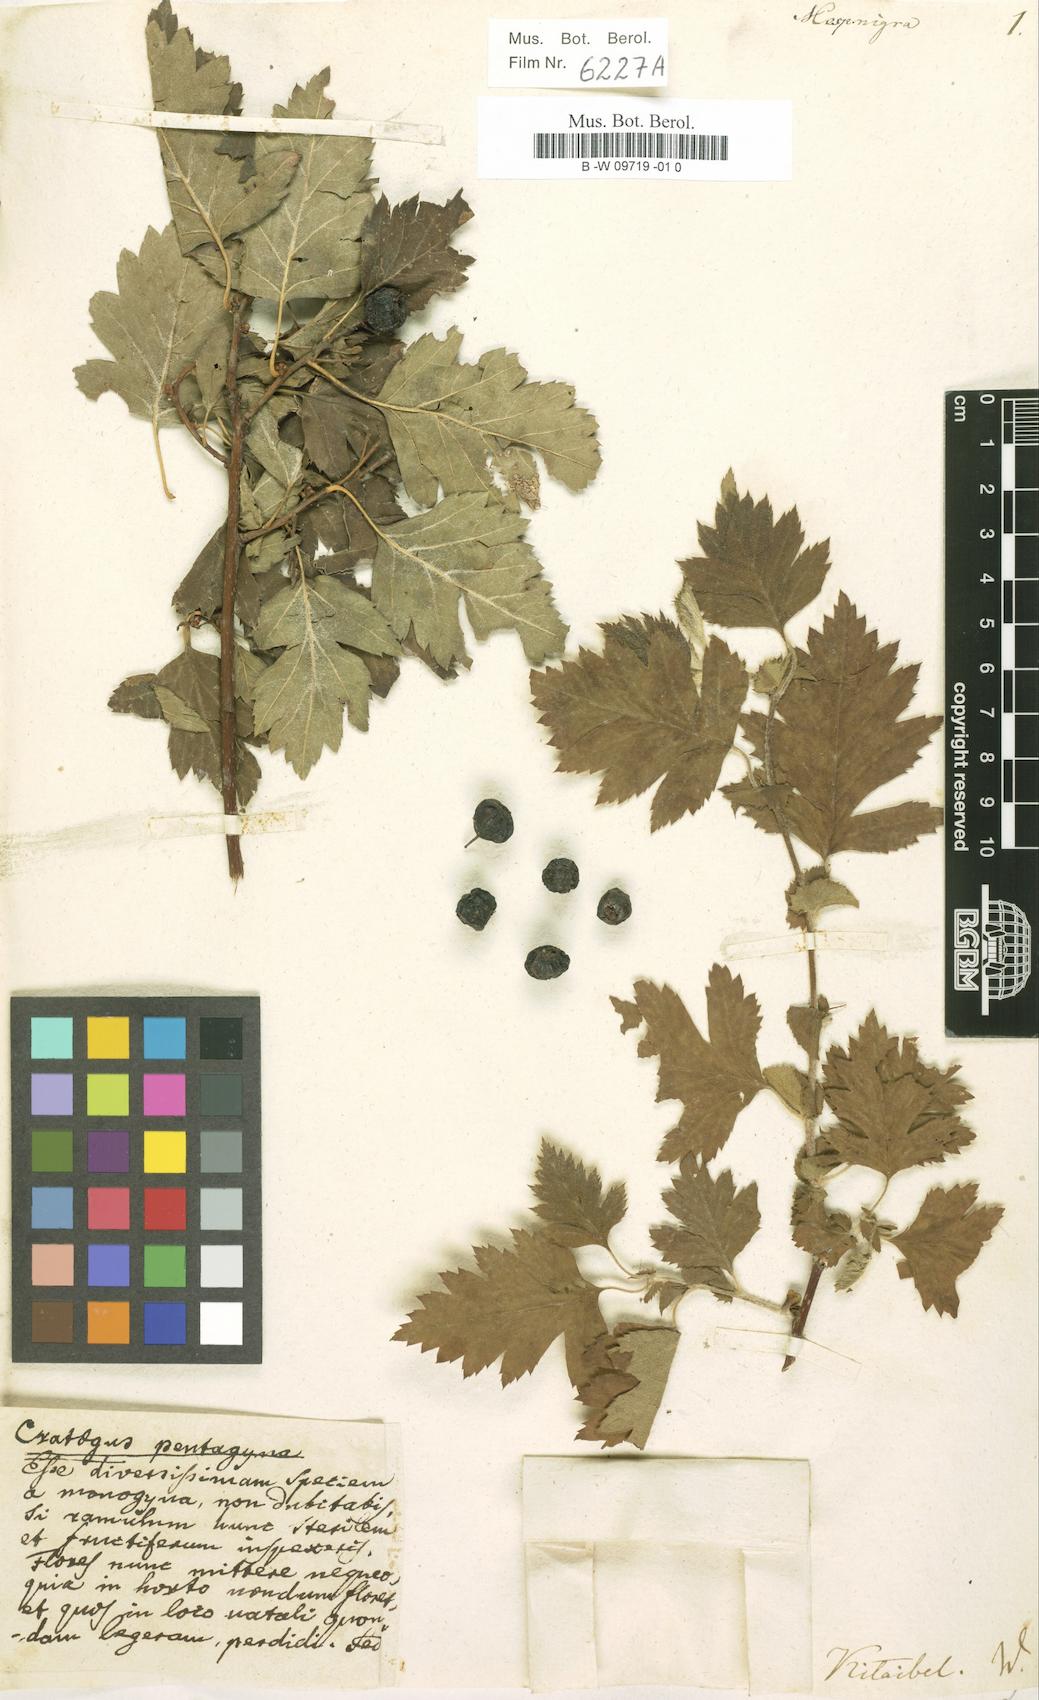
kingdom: Plantae
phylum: Tracheophyta
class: Magnoliopsida
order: Rosales
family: Rosaceae
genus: Crataegus
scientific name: Crataegus nigra
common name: Hungarian thorn
